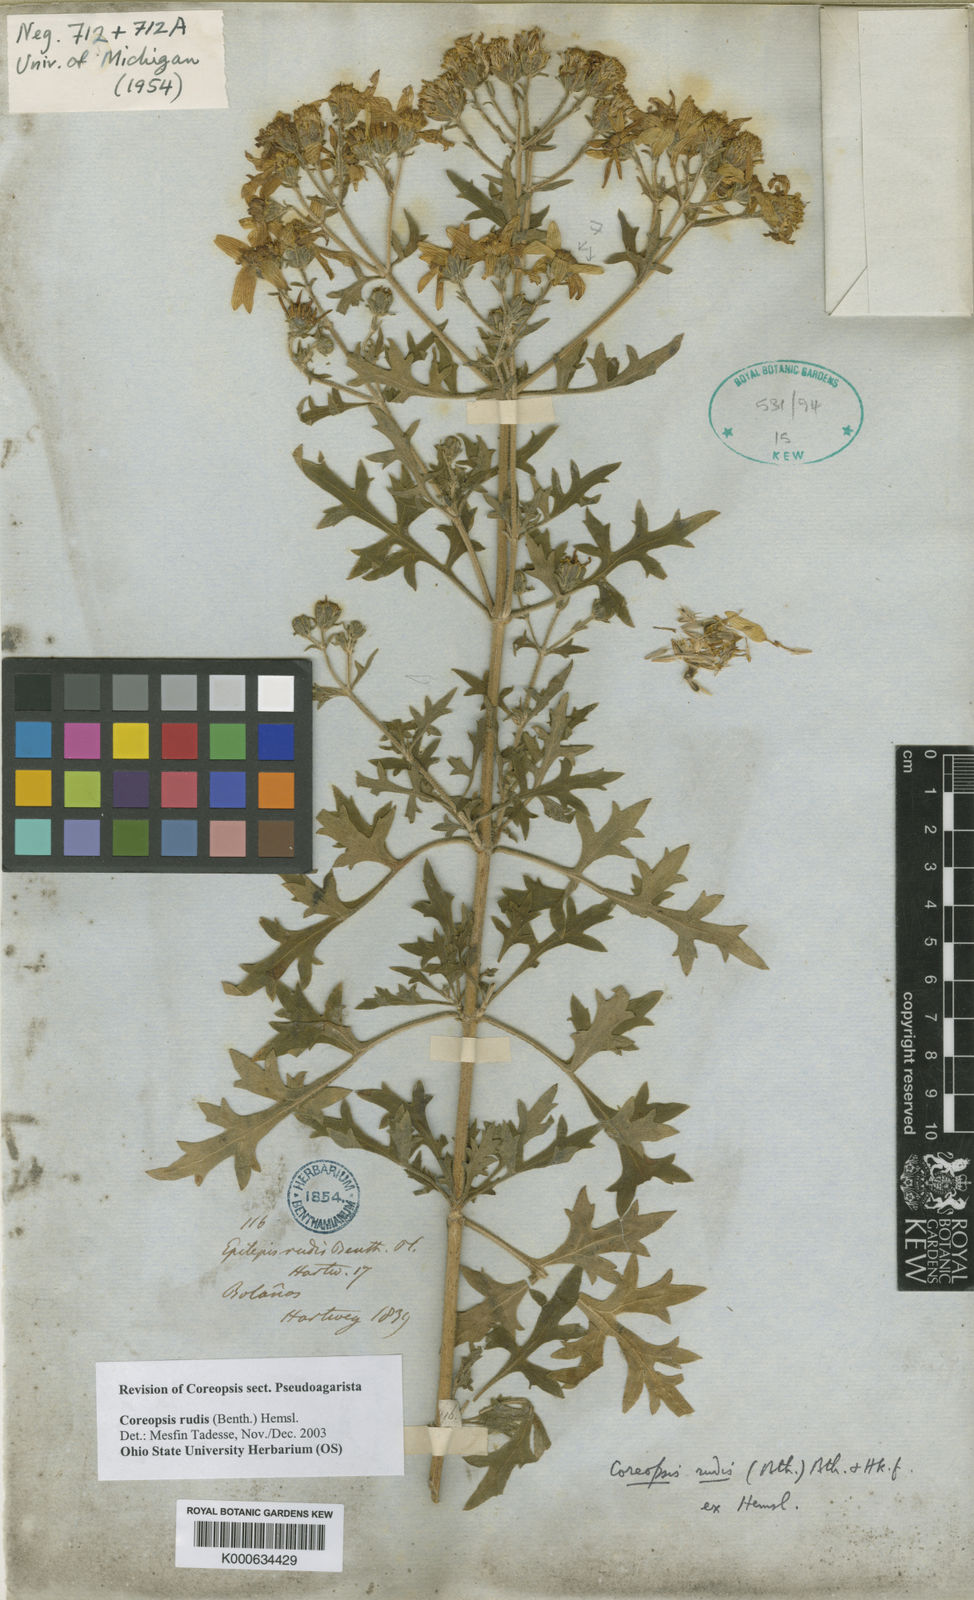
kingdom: Plantae
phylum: Tracheophyta
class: Magnoliopsida
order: Asterales
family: Asteraceae
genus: Coreopsis
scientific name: Coreopsis rudis
